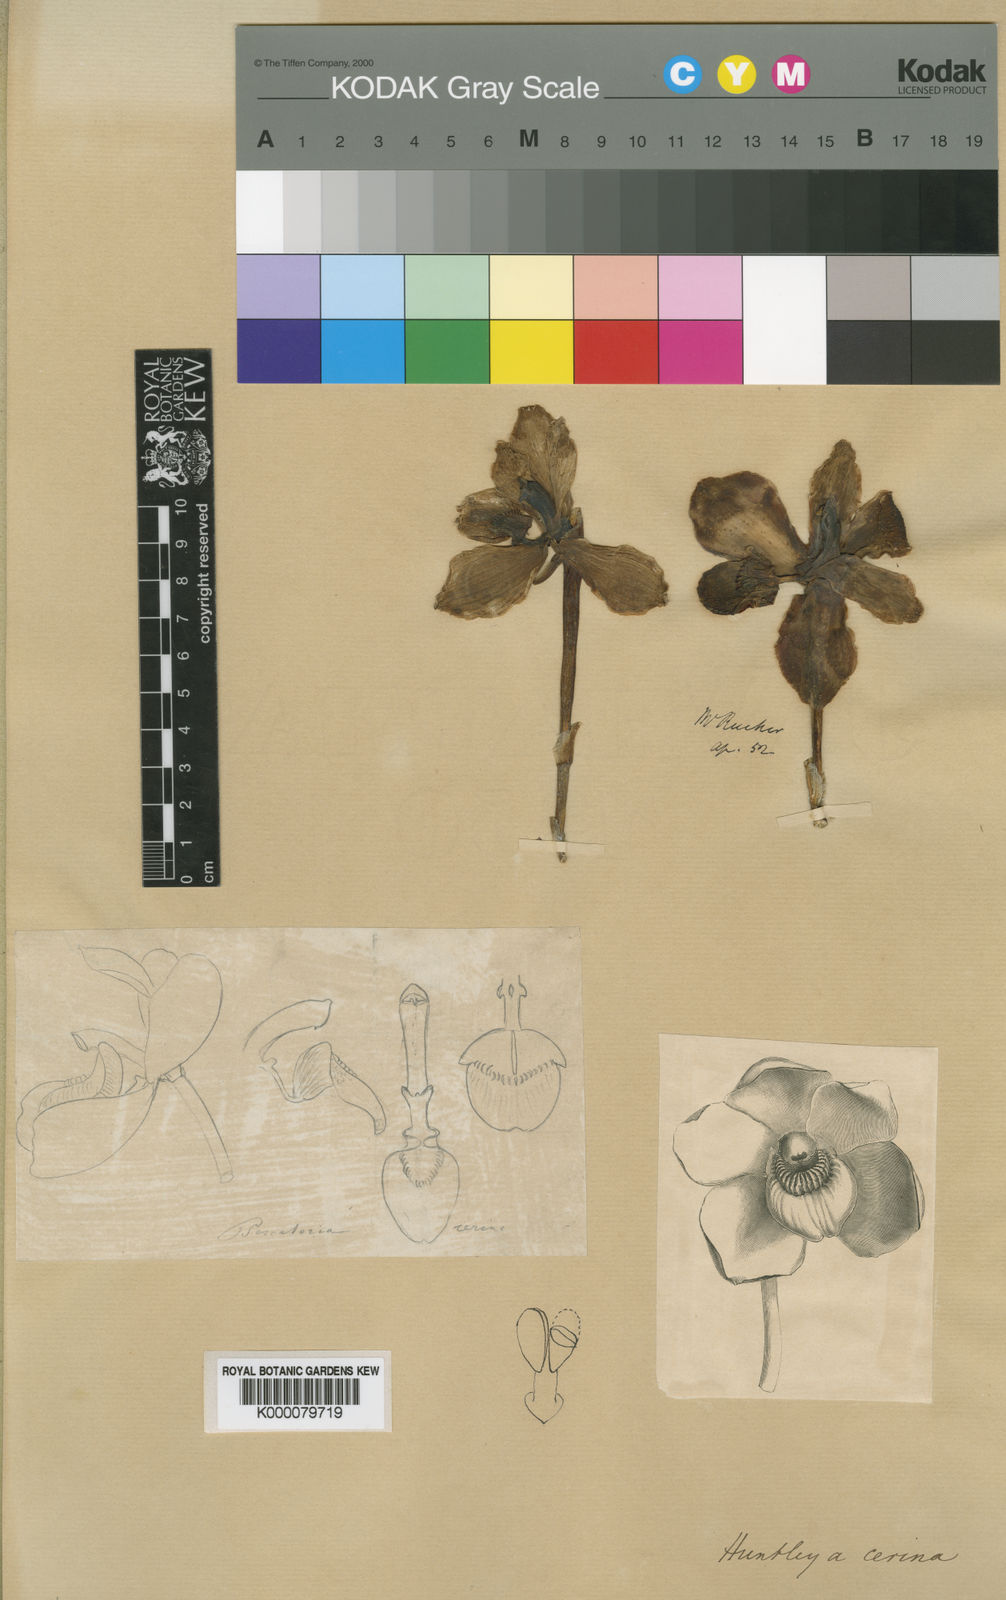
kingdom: Plantae
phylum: Tracheophyta
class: Liliopsida
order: Asparagales
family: Orchidaceae
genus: Pescatoria
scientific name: Pescatoria cerina
